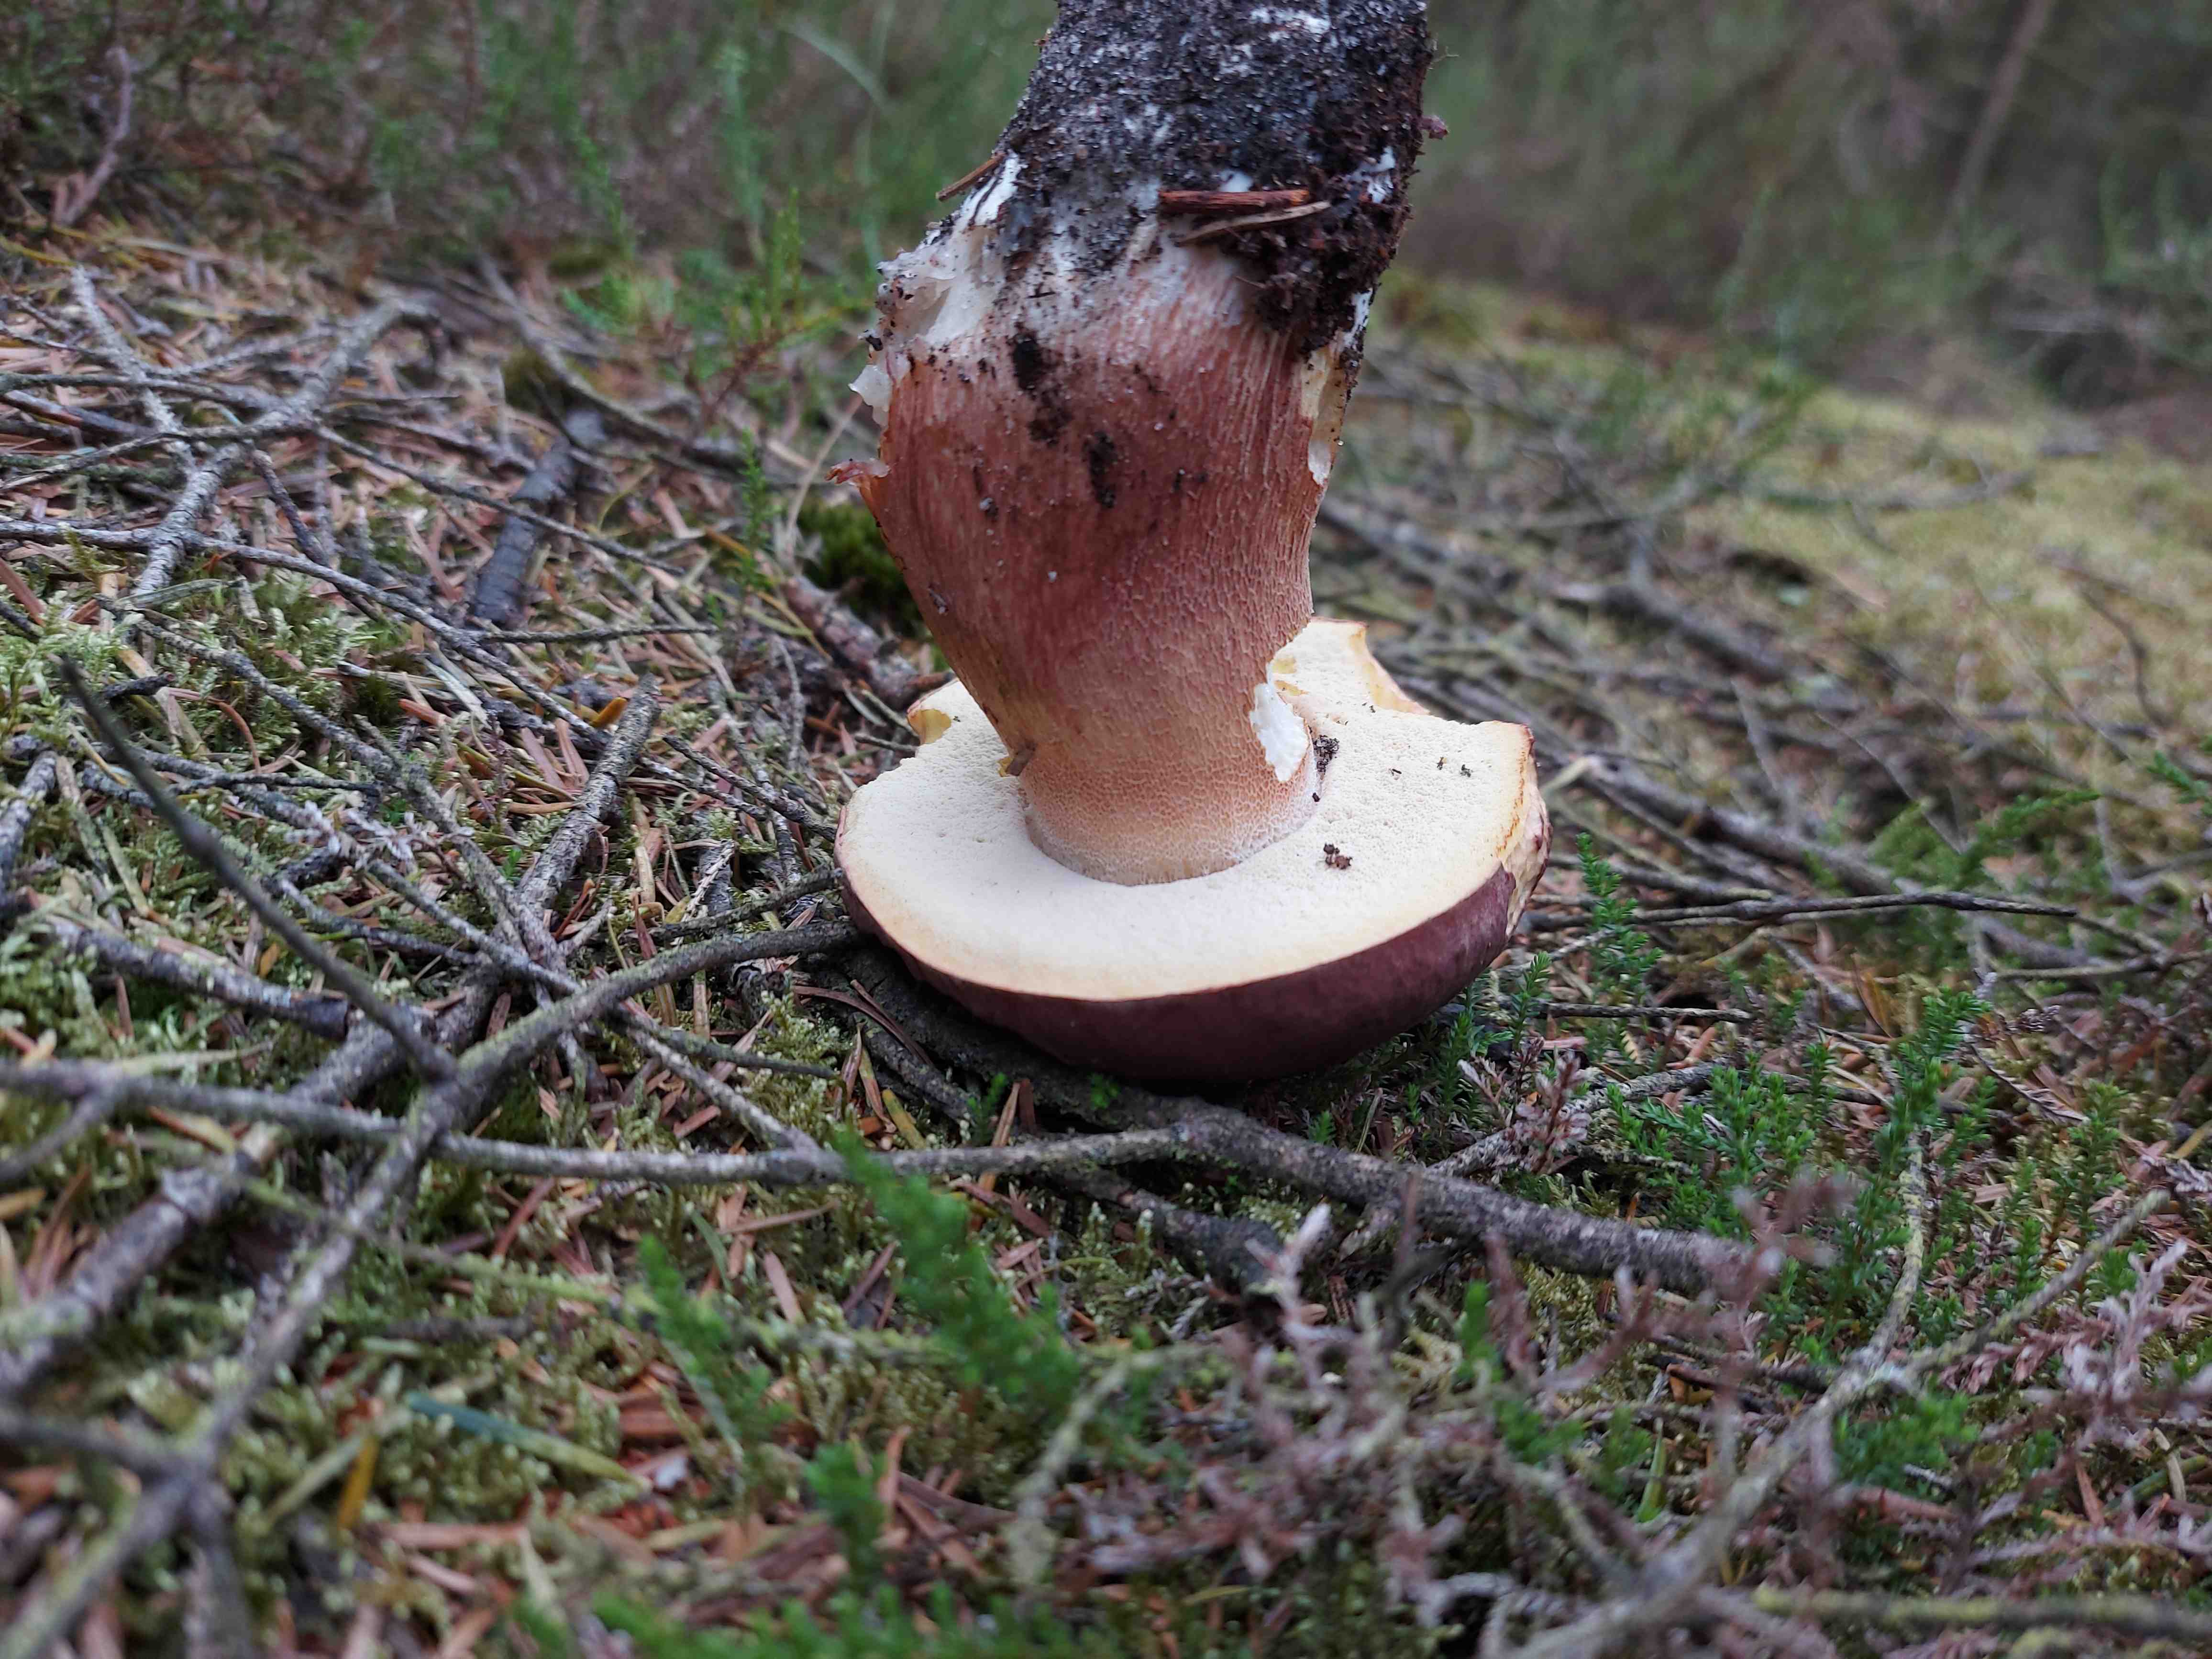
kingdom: Fungi
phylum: Basidiomycota
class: Agaricomycetes
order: Boletales
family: Boletaceae
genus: Boletus
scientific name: Boletus pinophilus
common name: rødbrun rørhat
